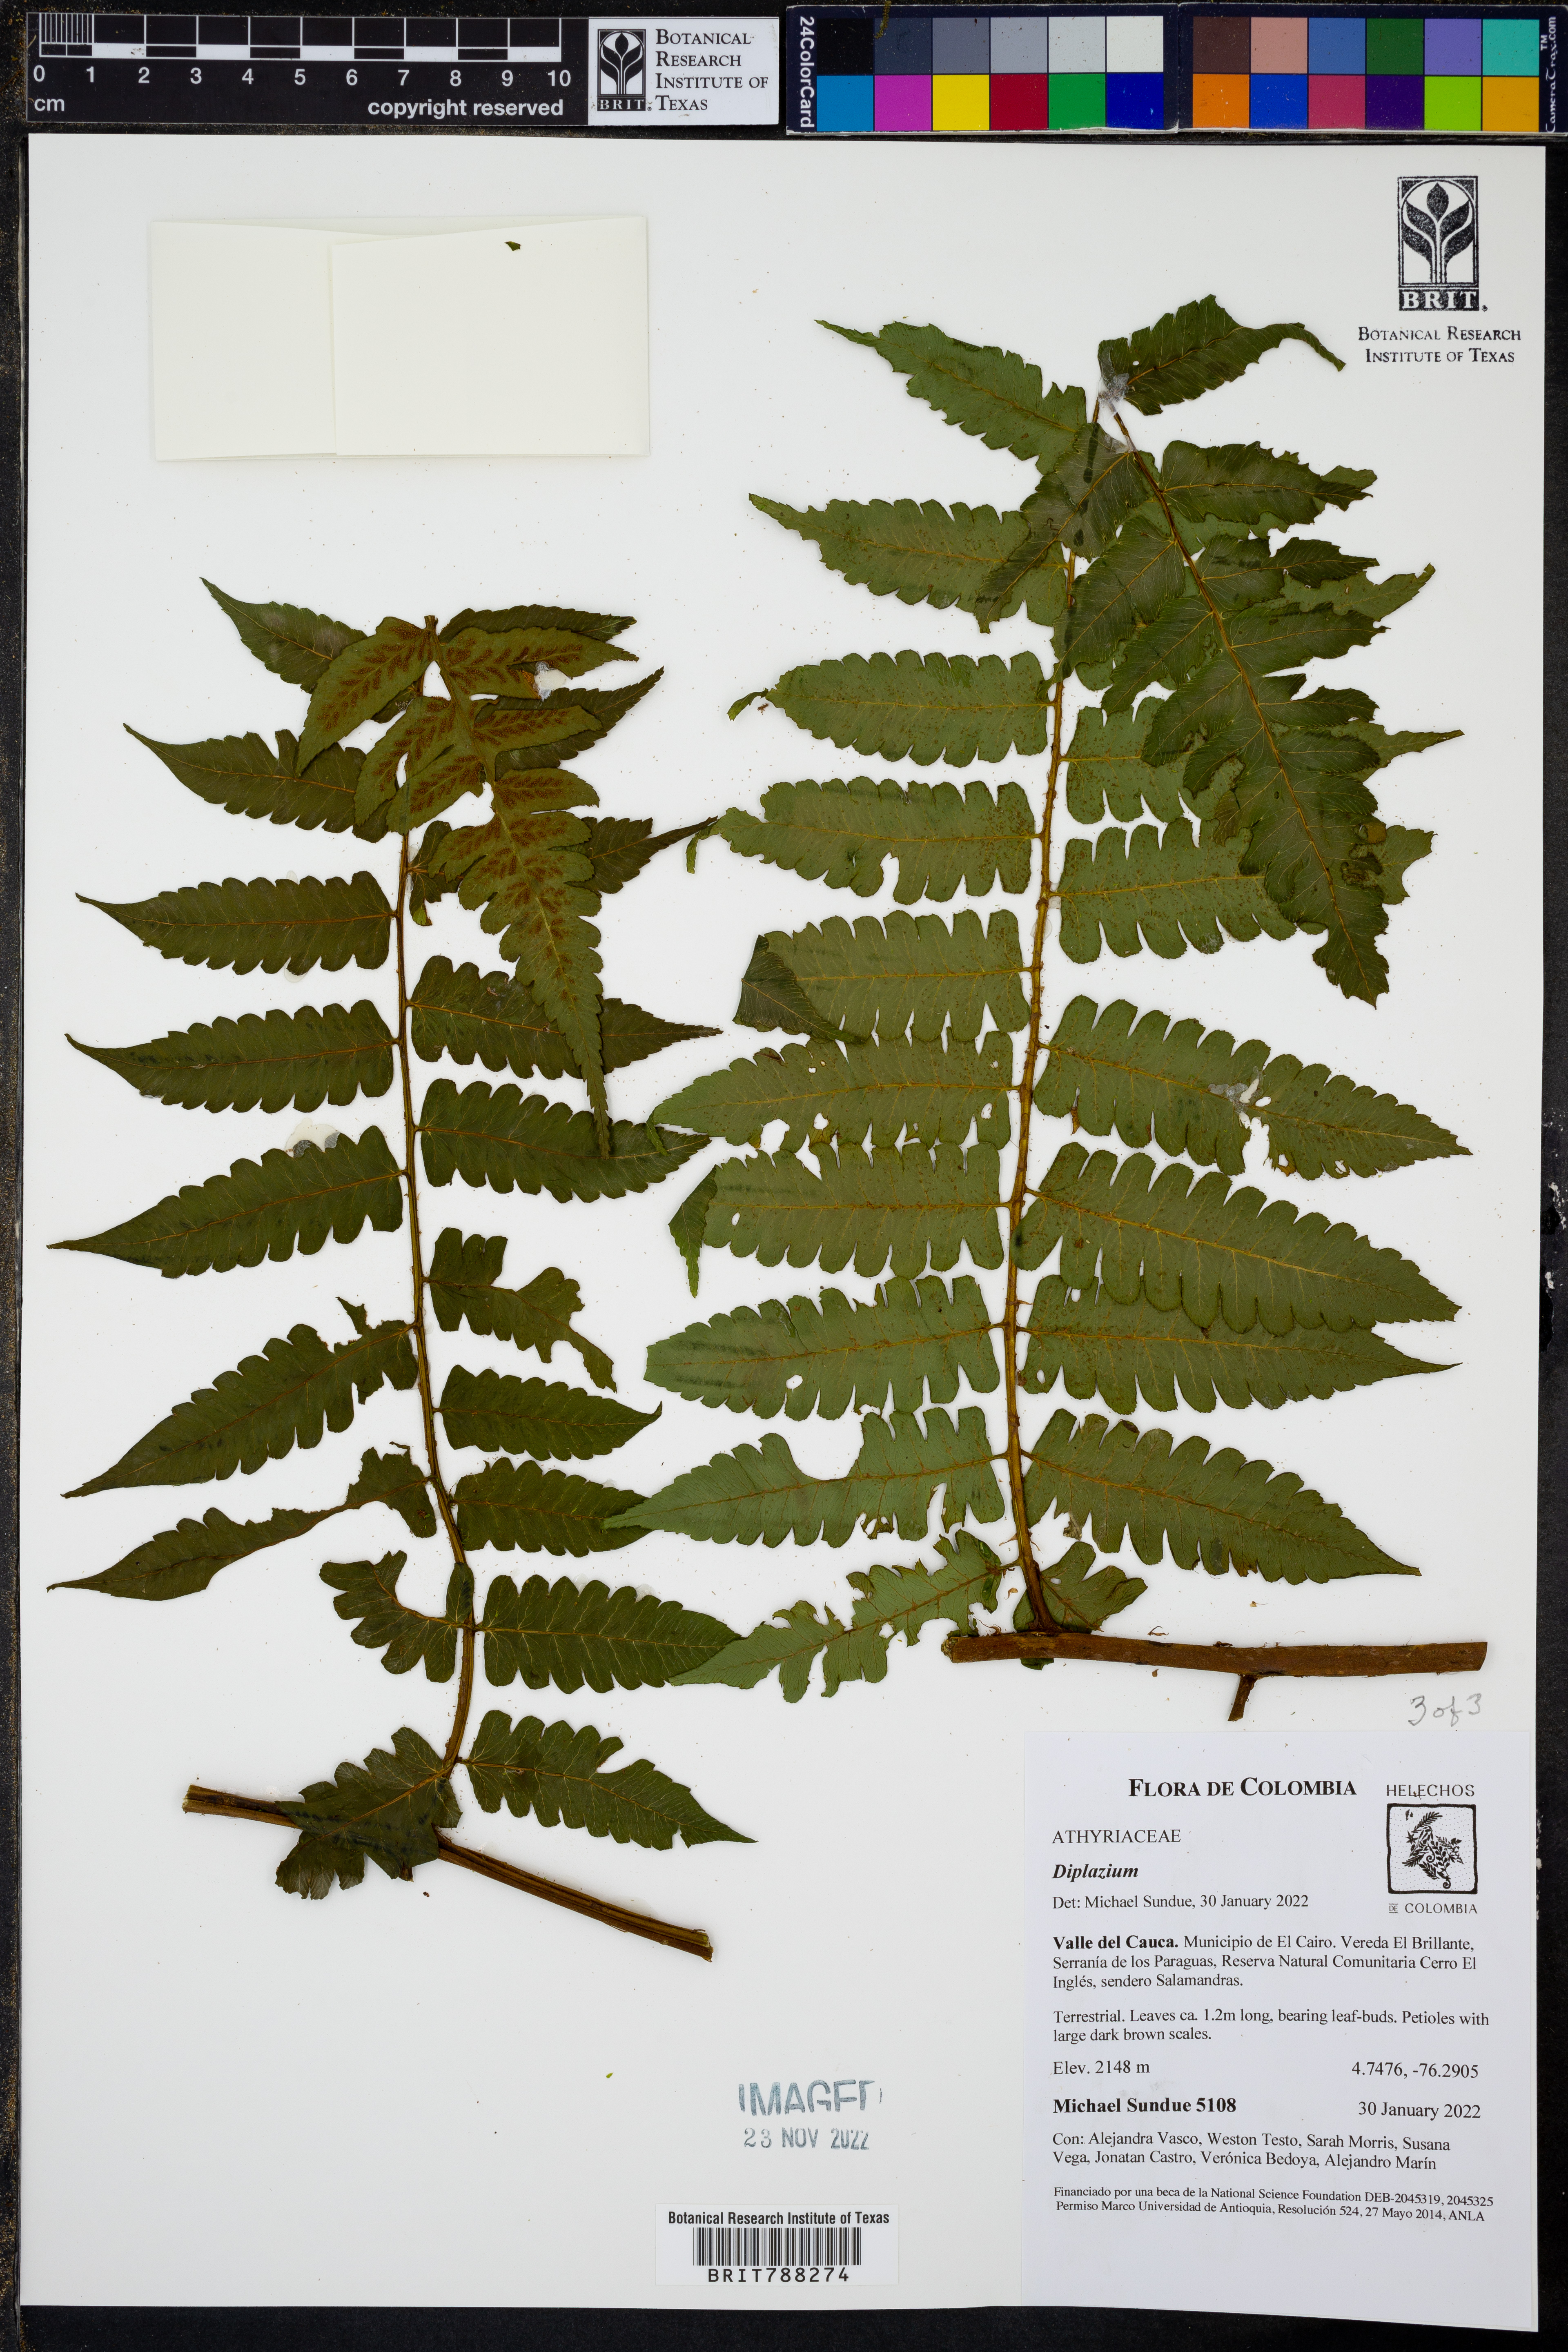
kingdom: Plantae
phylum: Tracheophyta
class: Polypodiopsida
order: Polypodiales
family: Athyriaceae
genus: Diplazium
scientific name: Diplazium tungurahuae
